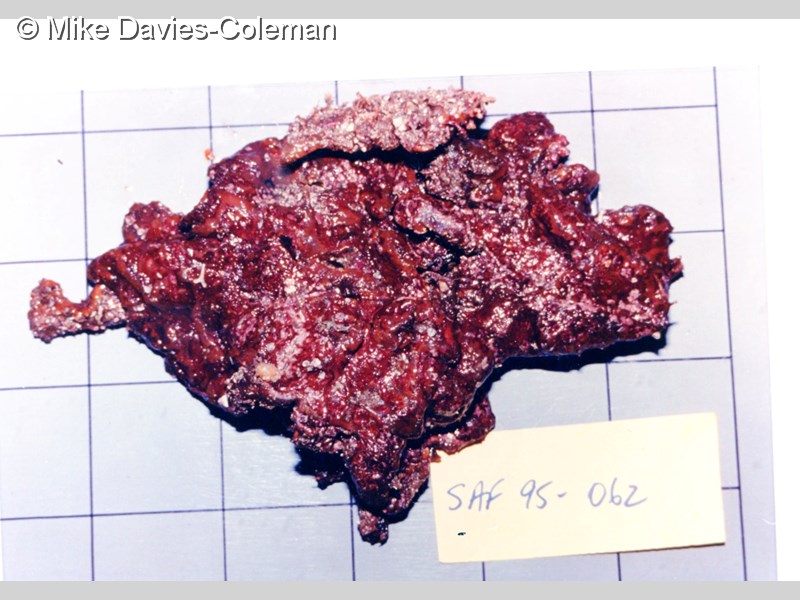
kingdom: Animalia
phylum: Chordata
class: Ascidiacea
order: Stolidobranchia
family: Styelidae
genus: Botryllus
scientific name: Botryllus
